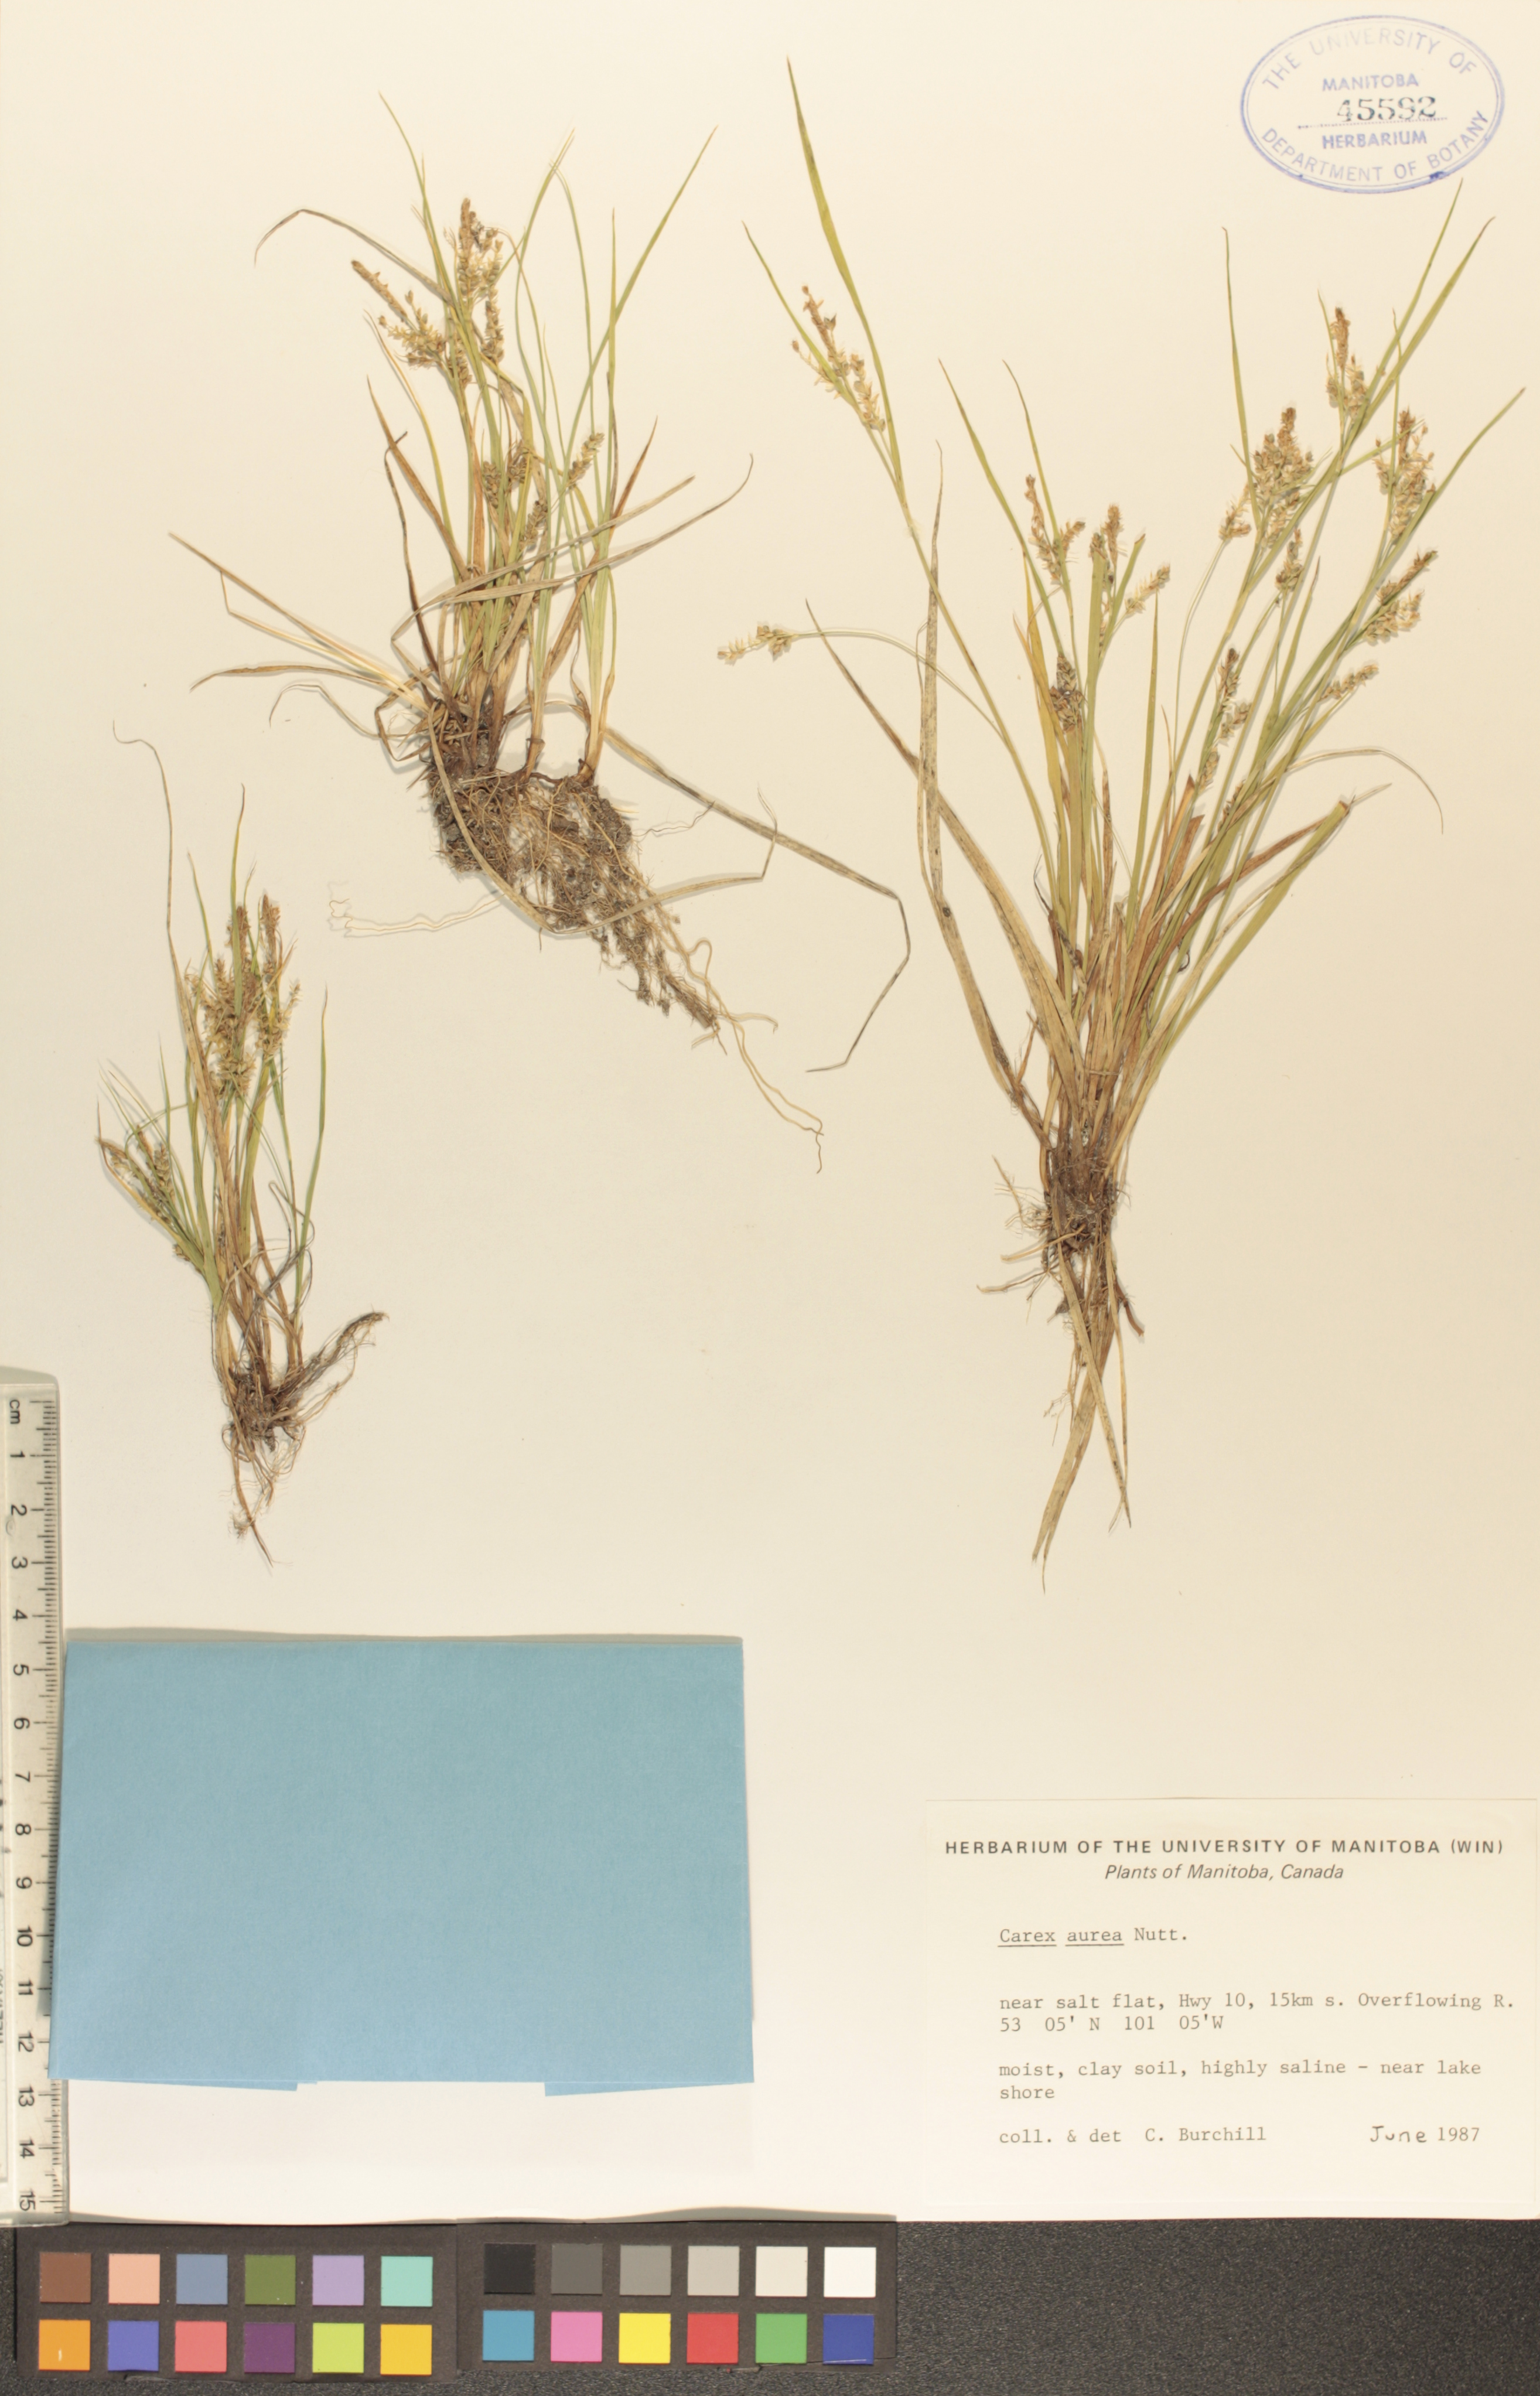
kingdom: Plantae
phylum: Tracheophyta
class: Liliopsida
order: Poales
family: Cyperaceae
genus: Carex
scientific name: Carex aurea
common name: Golden sedge
